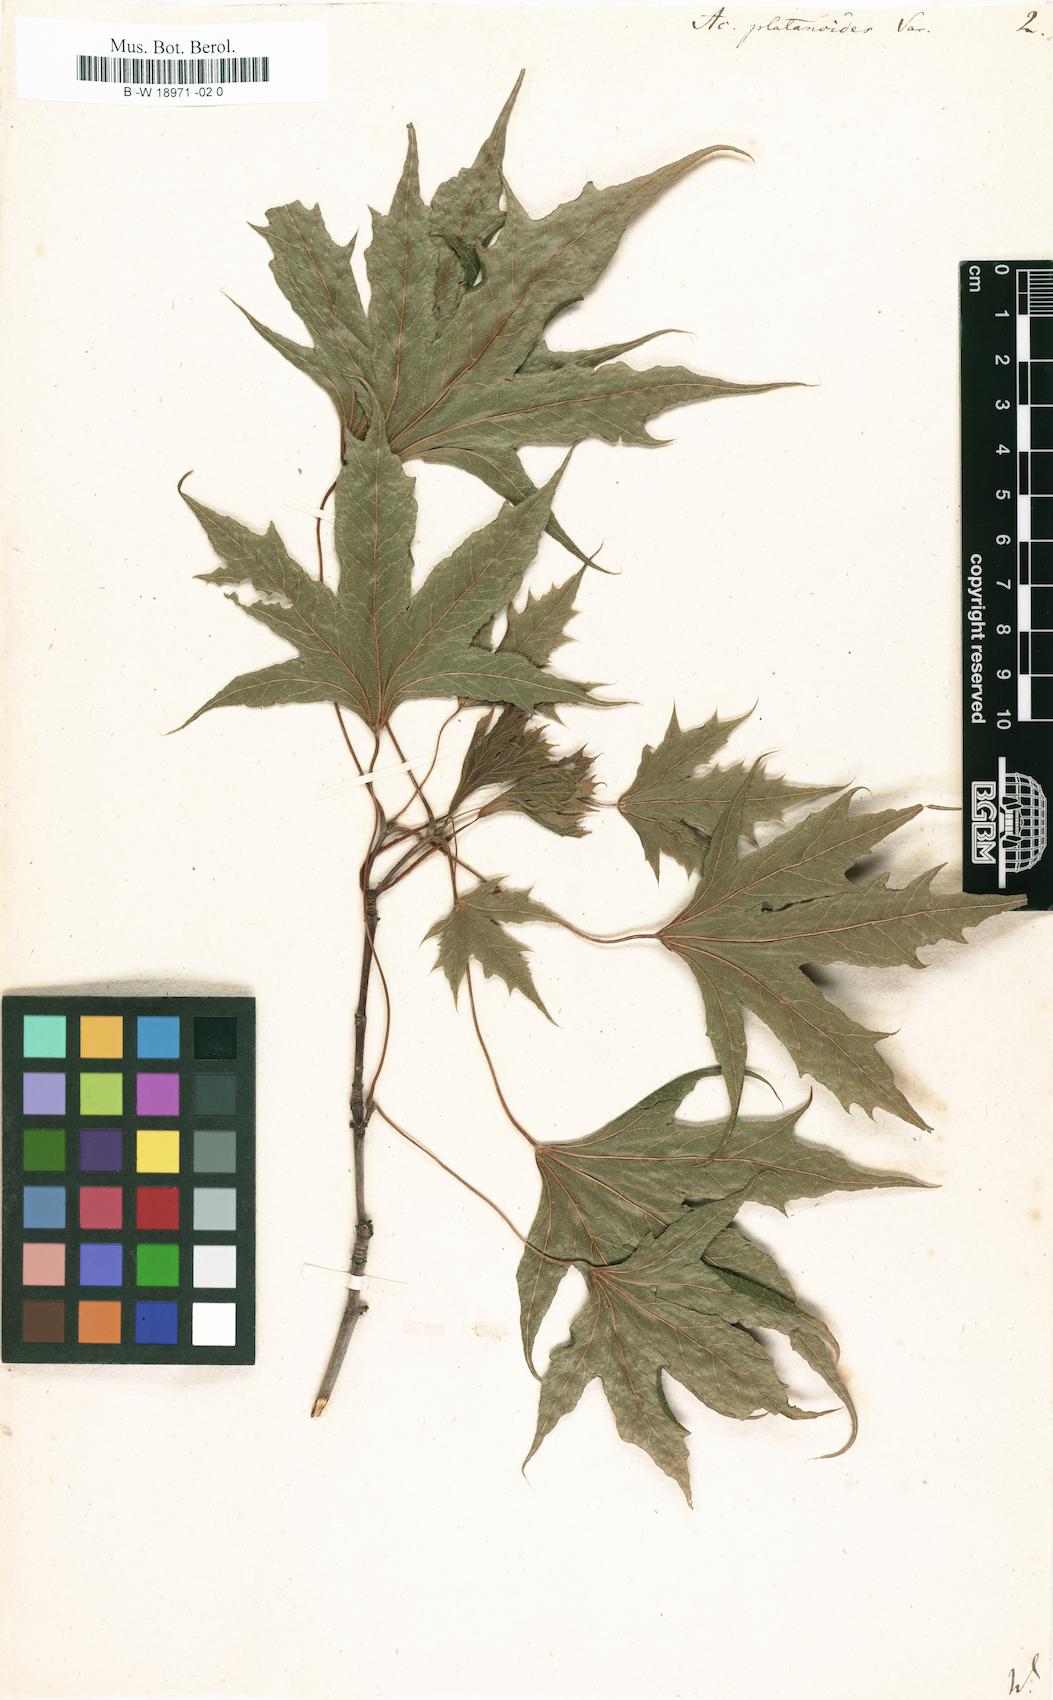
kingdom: Plantae
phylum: Tracheophyta
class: Magnoliopsida
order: Sapindales
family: Sapindaceae
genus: Acer
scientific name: Acer platanoides
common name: Norway maple
